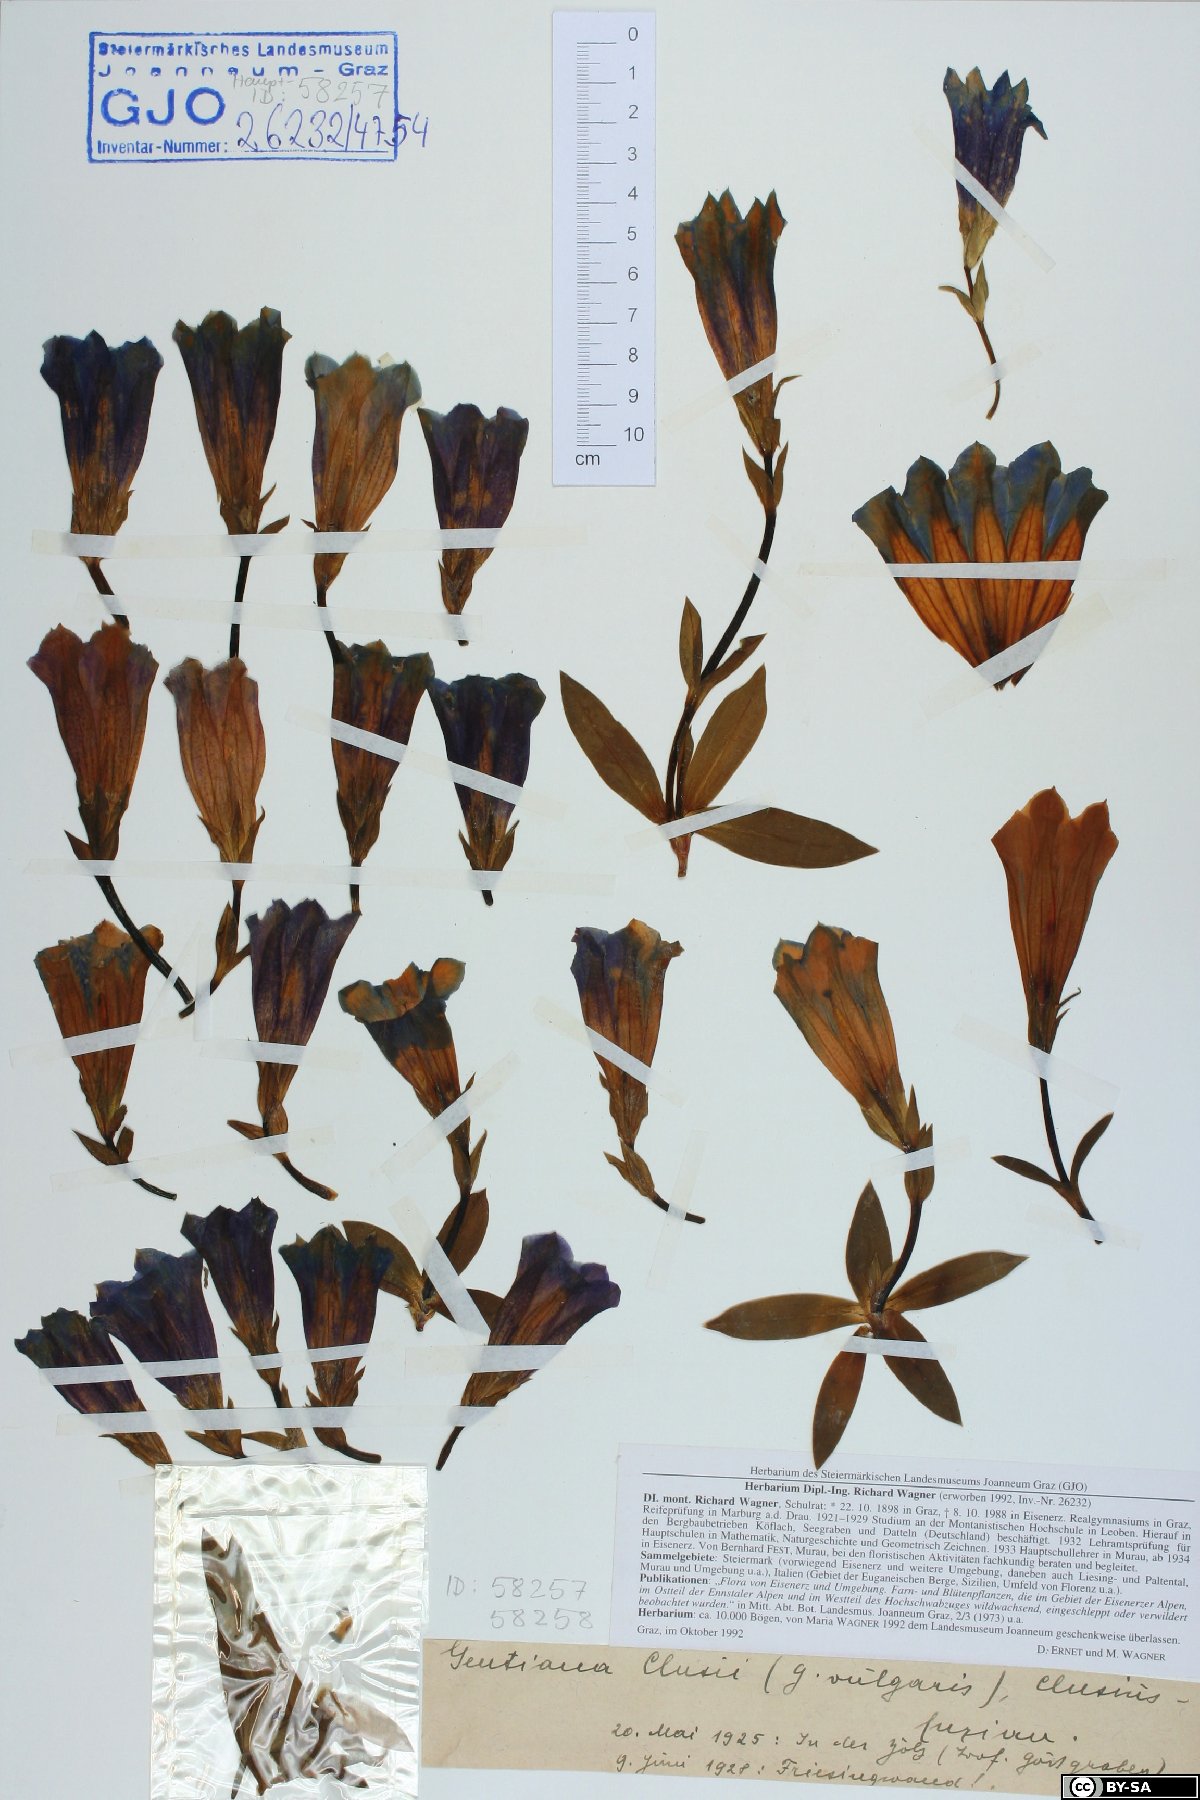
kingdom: Plantae
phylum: Tracheophyta
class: Magnoliopsida
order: Gentianales
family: Gentianaceae
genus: Gentiana
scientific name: Gentiana clusii
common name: Trumpet gentian
